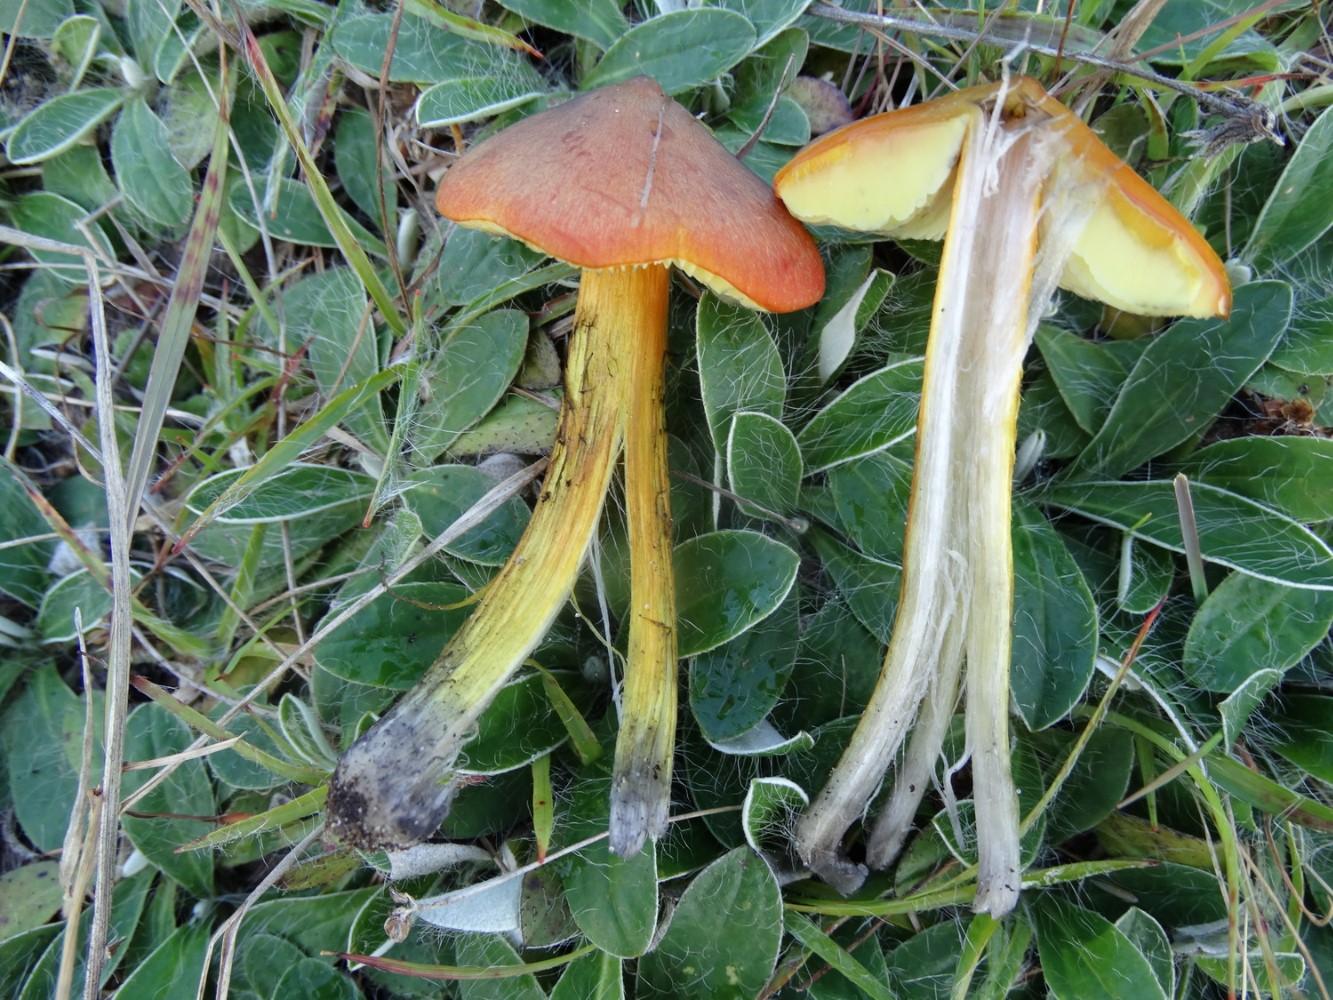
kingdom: Fungi
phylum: Basidiomycota
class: Agaricomycetes
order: Agaricales
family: Hygrophoraceae
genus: Hygrocybe
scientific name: Hygrocybe conica
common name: kegle-vokshat
